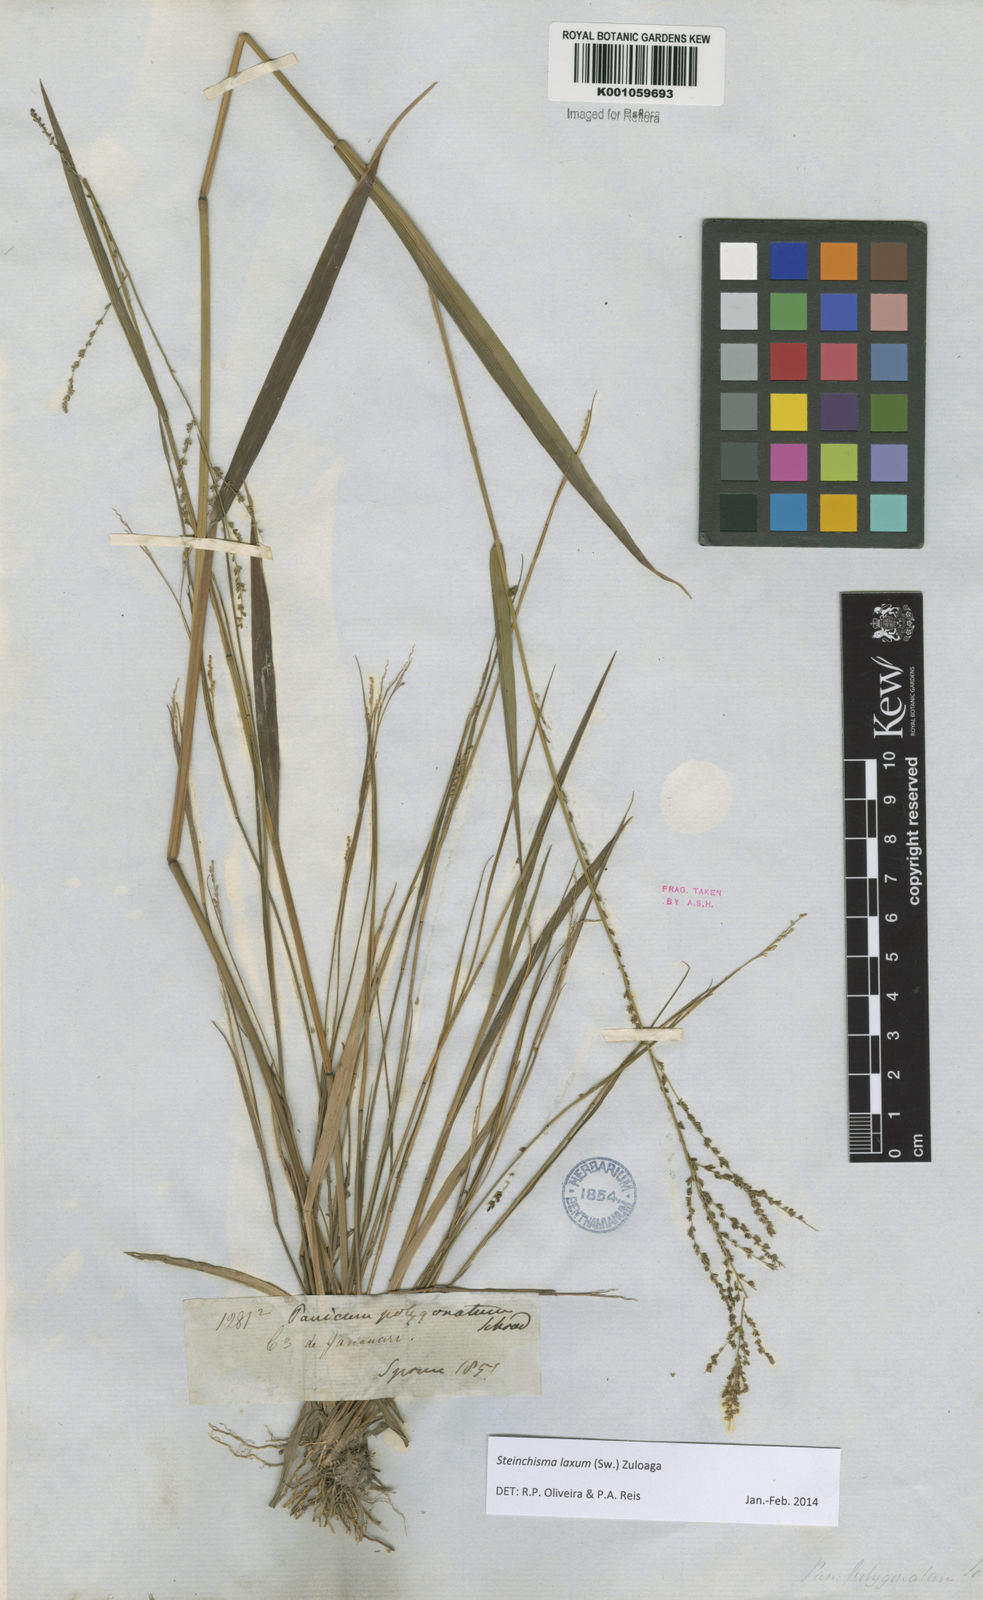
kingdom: Plantae
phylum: Tracheophyta
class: Liliopsida
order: Poales
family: Poaceae
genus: Steinchisma
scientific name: Steinchisma laxum
